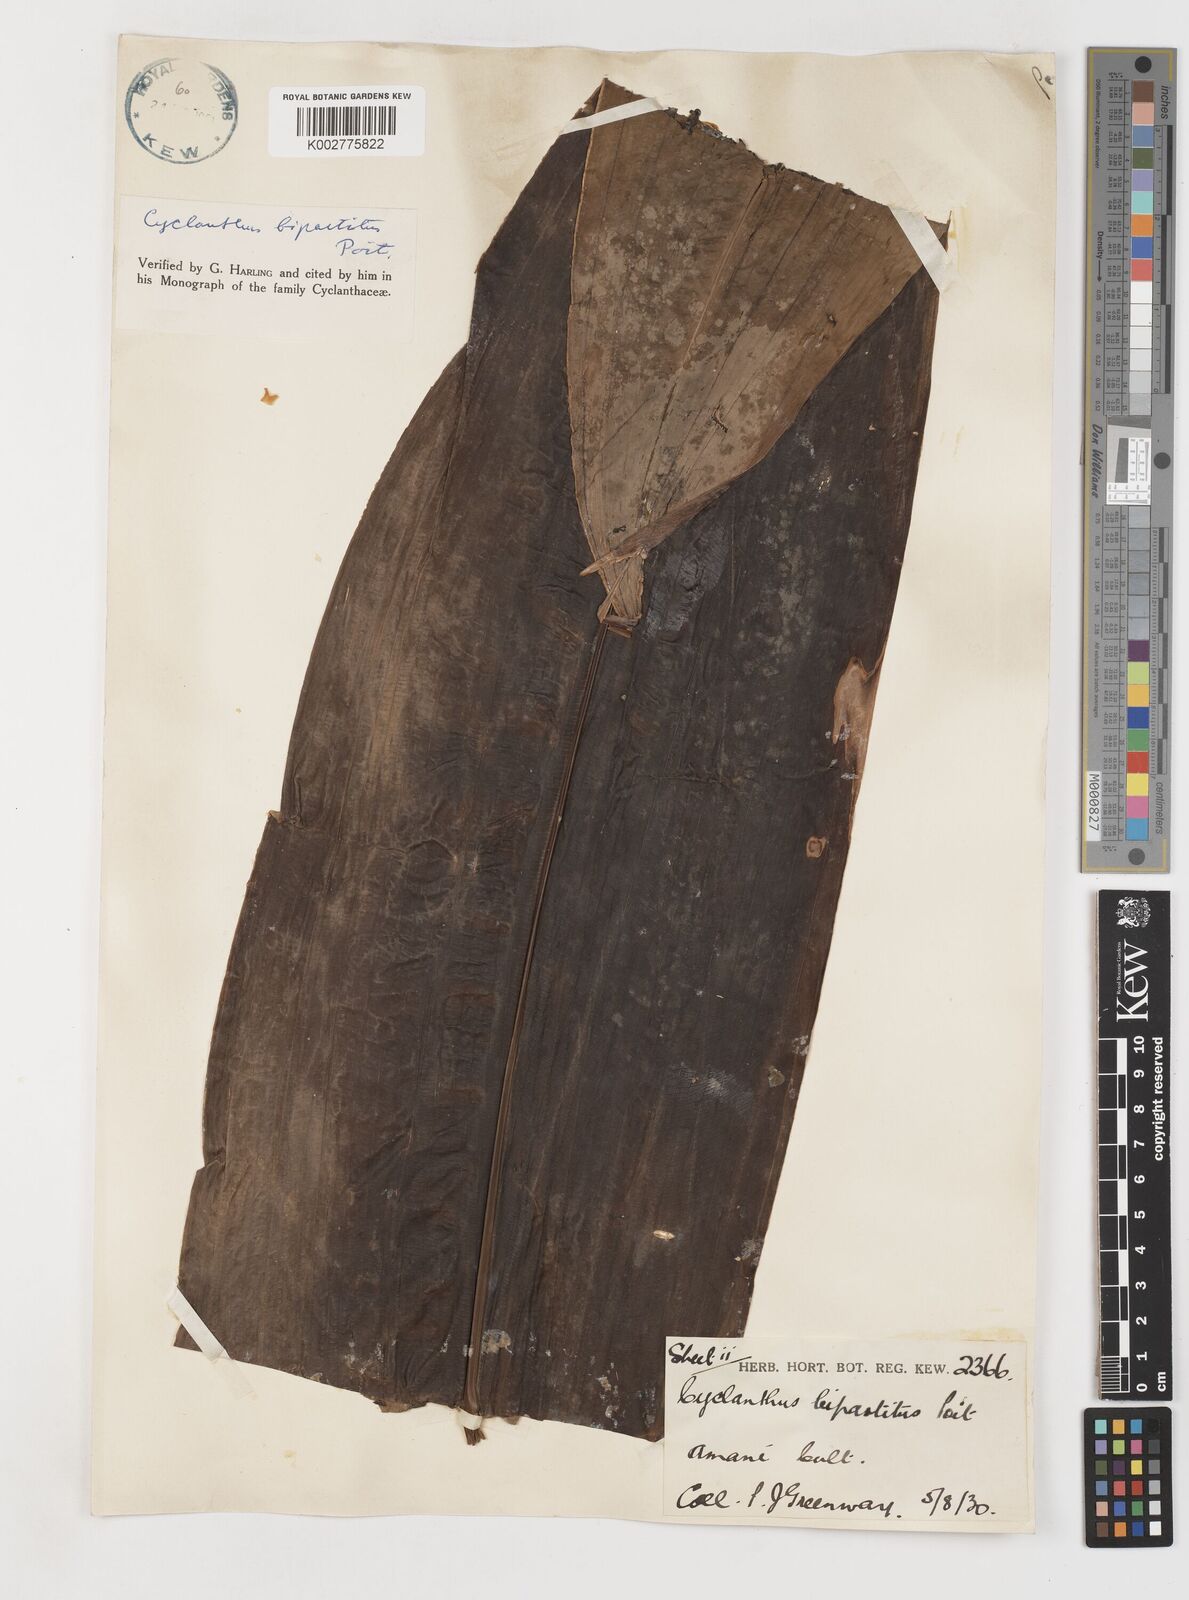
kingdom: Plantae
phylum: Tracheophyta
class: Liliopsida
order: Pandanales
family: Cyclanthaceae
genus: Cyclanthus
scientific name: Cyclanthus bipartitus
